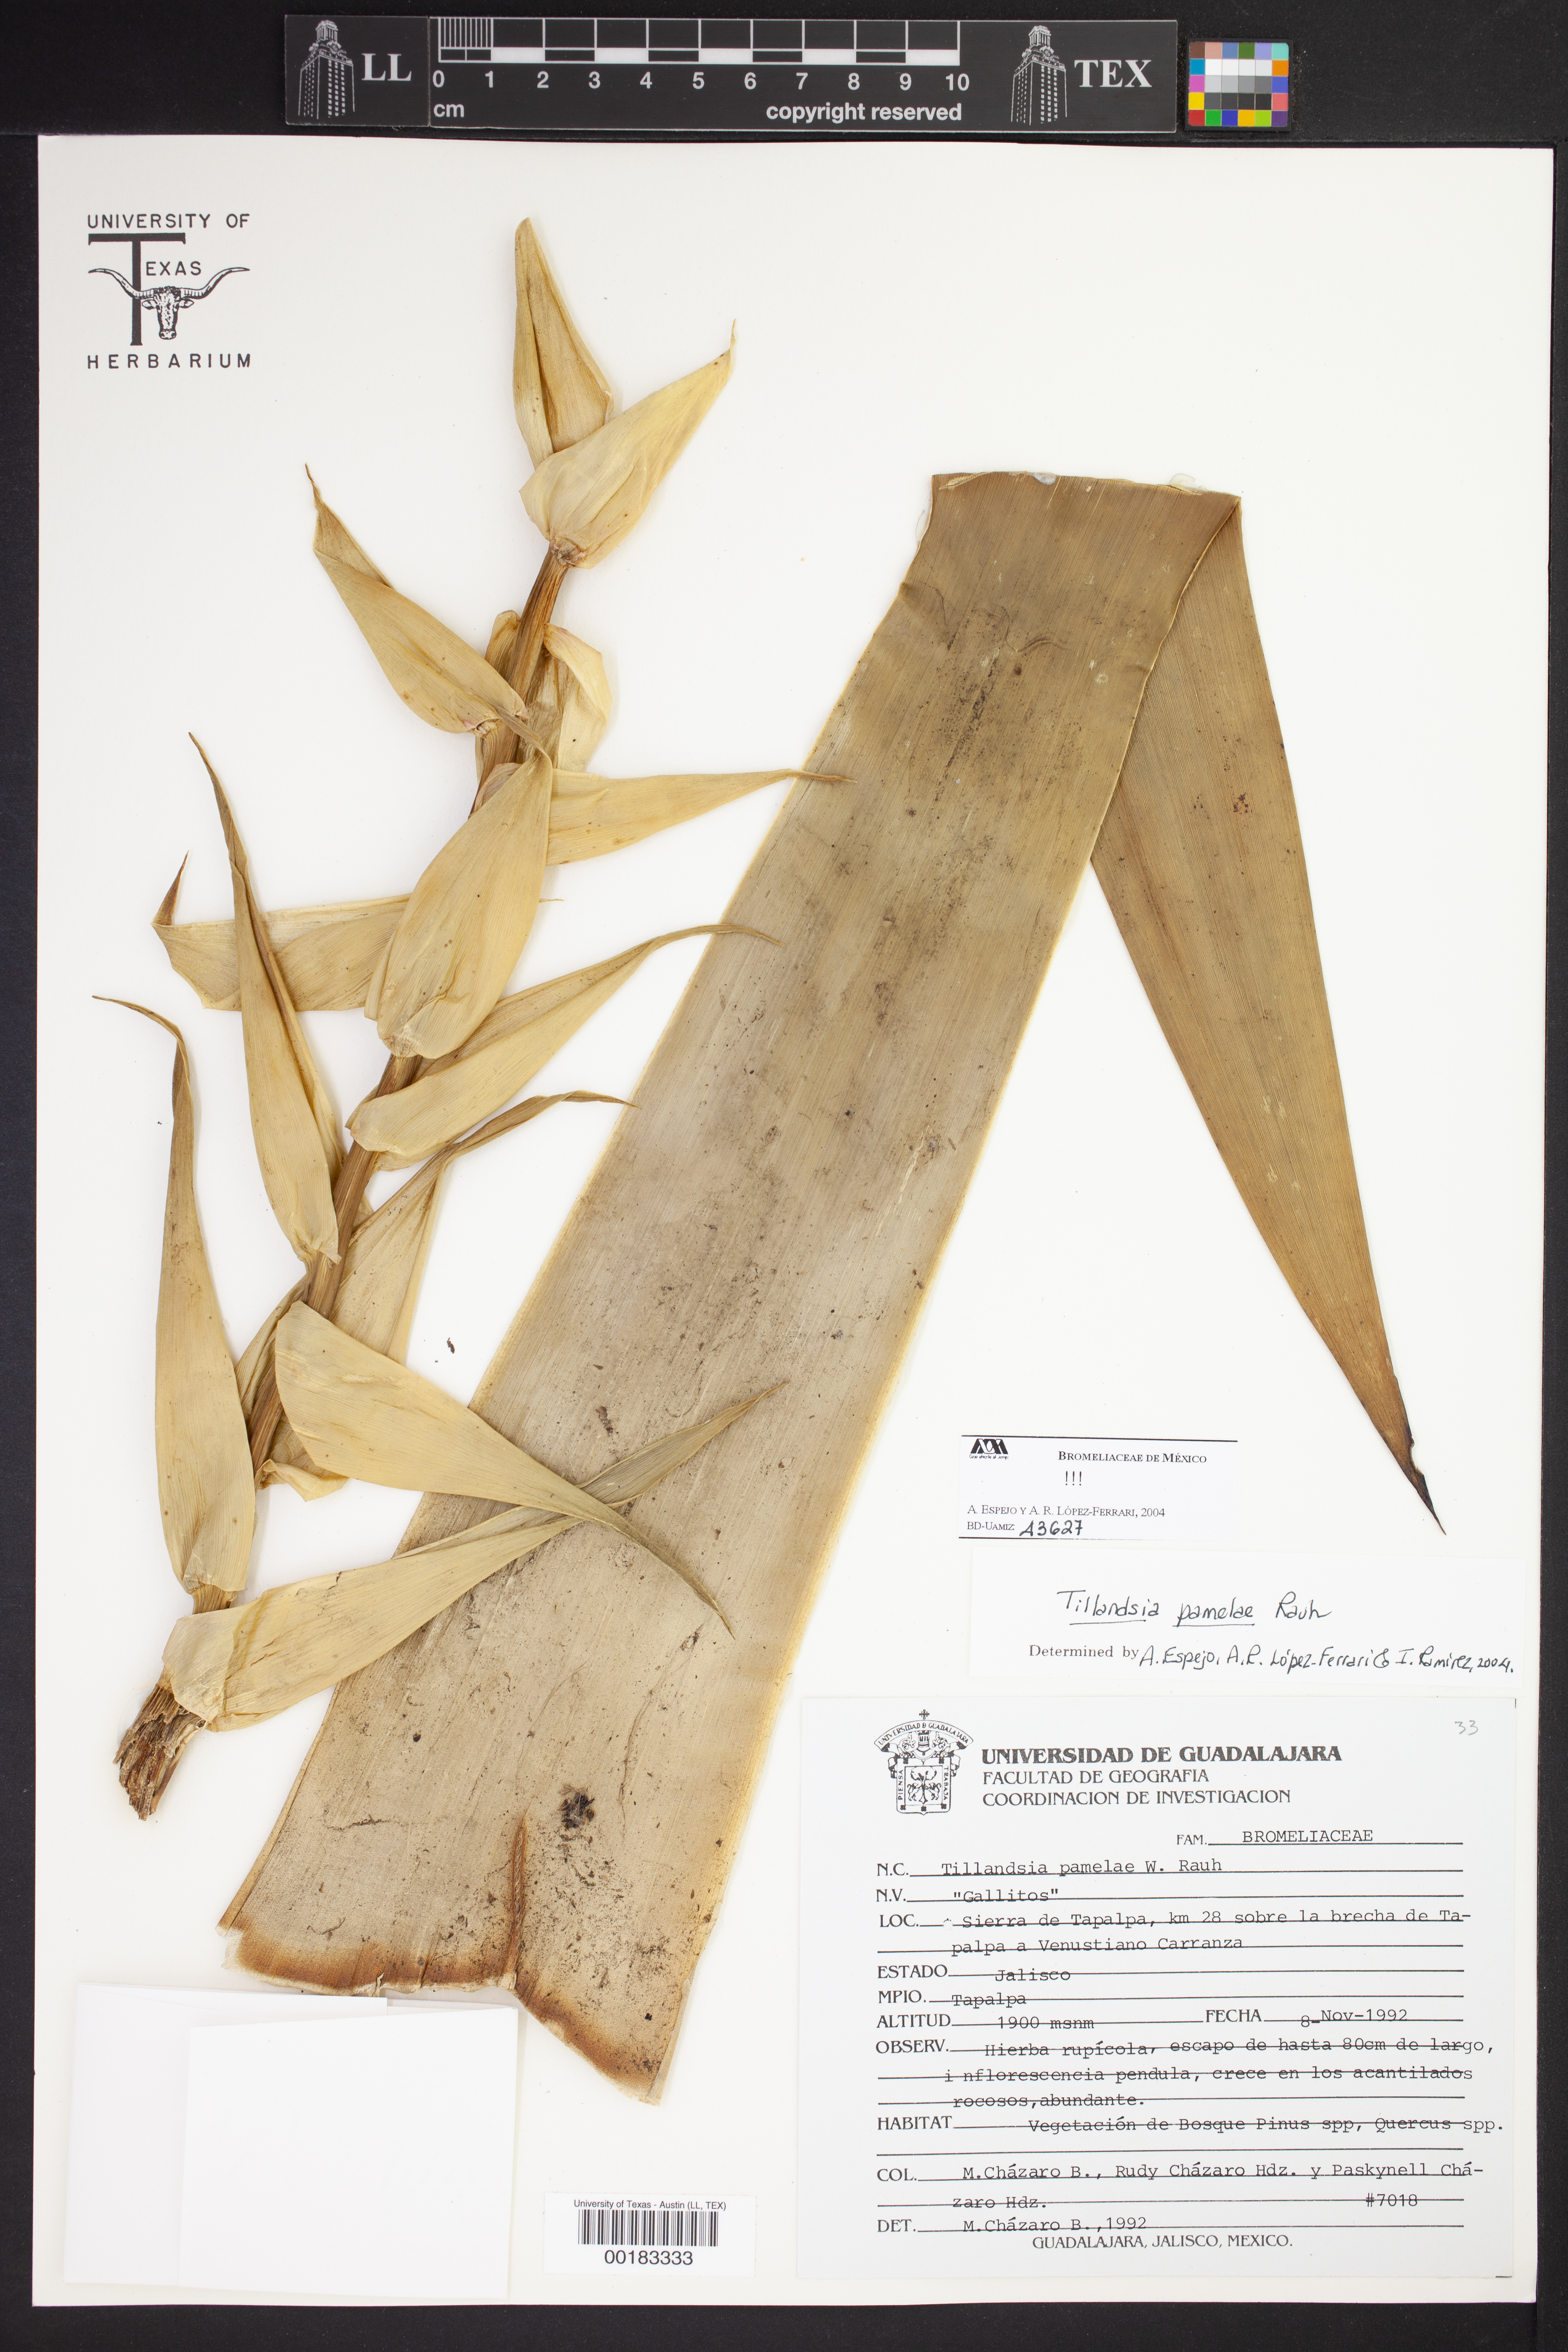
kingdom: Plantae
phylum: Tracheophyta
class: Liliopsida
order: Poales
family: Bromeliaceae
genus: Tillandsia
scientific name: Tillandsia pamelae
